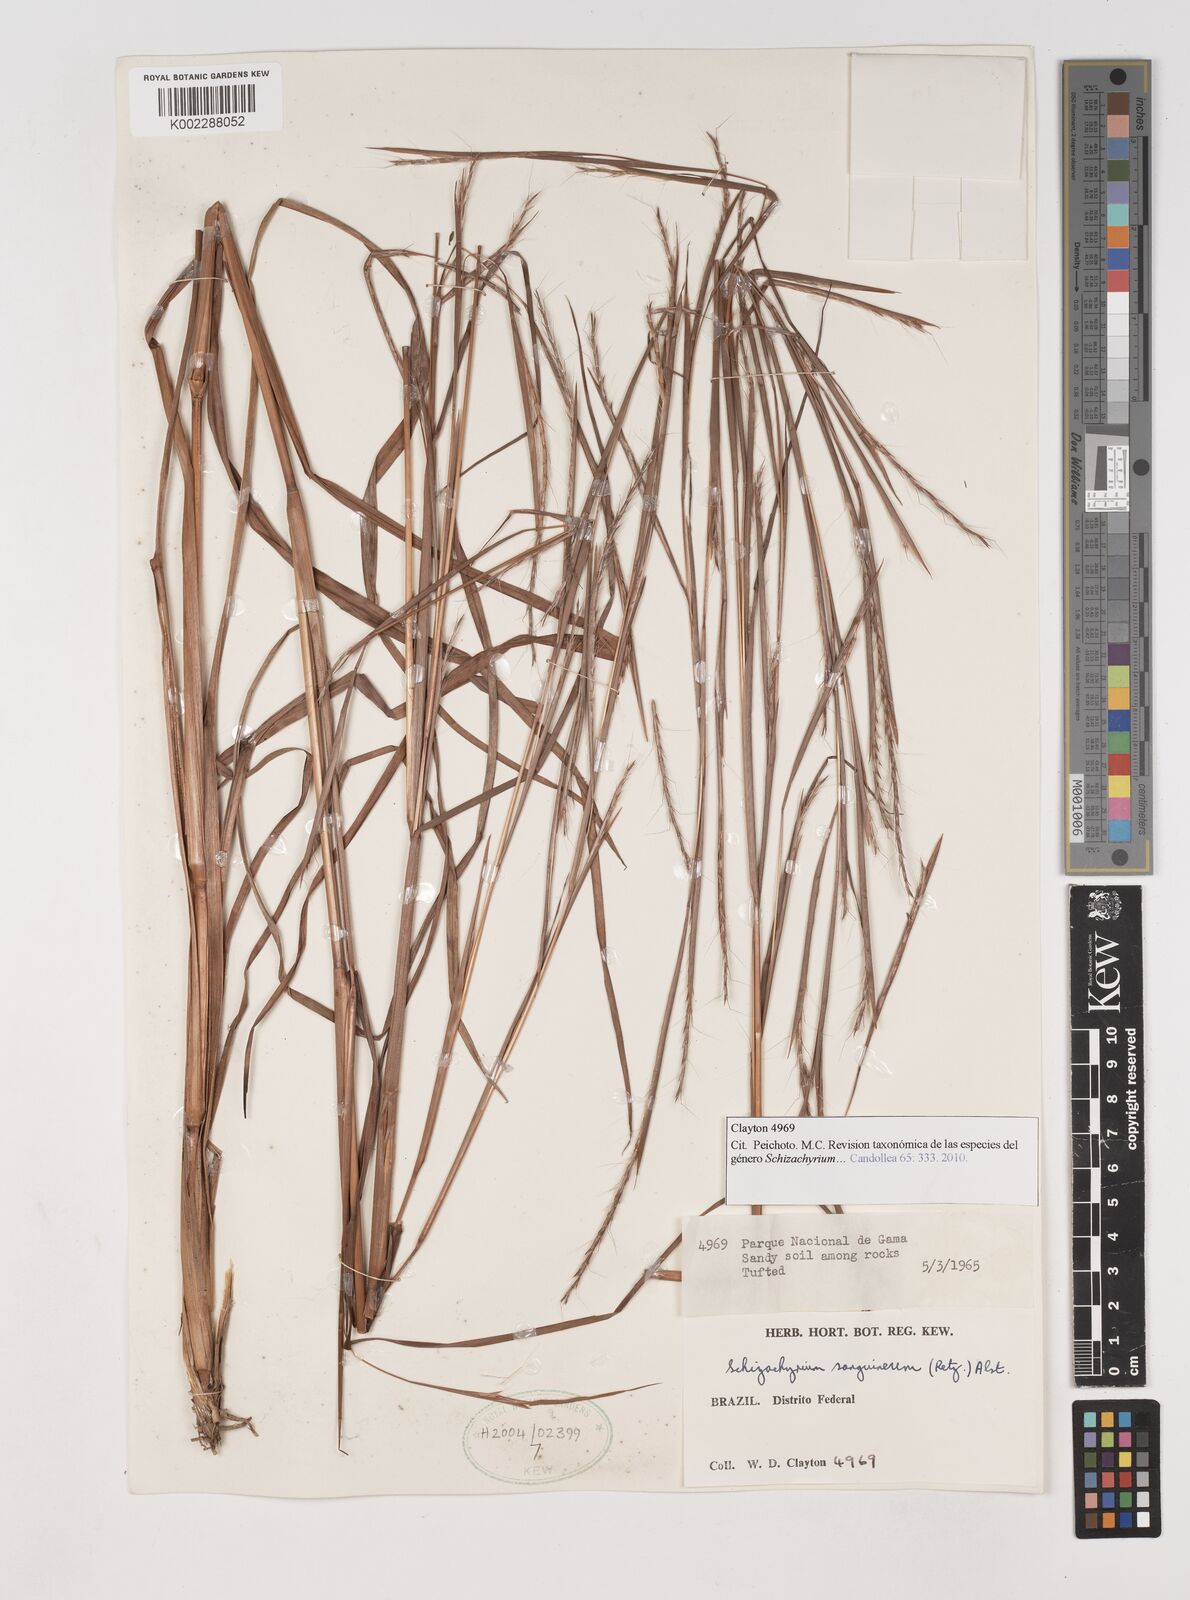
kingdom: Plantae
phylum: Tracheophyta
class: Liliopsida
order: Poales
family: Poaceae
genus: Schizachyrium
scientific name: Schizachyrium sanguineum
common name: Crimson bluestem
